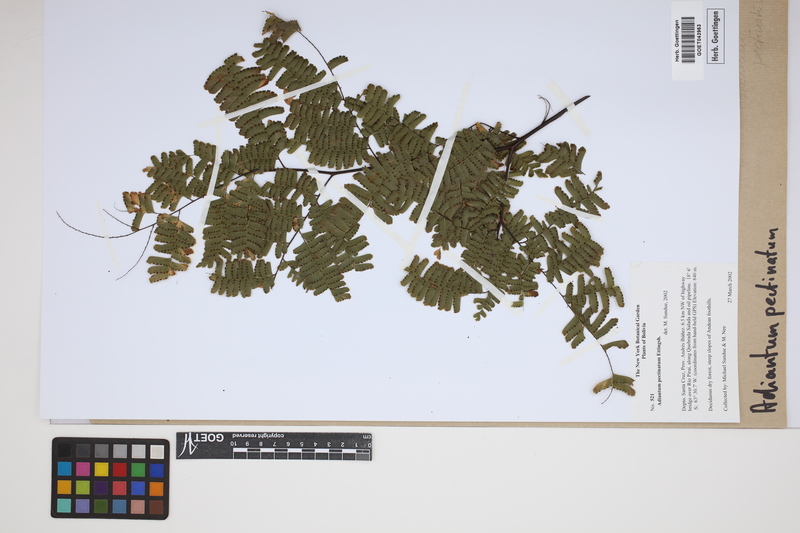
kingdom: Plantae
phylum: Tracheophyta
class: Polypodiopsida
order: Polypodiales
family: Pteridaceae
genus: Adiantum
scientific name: Adiantum pectinatum
